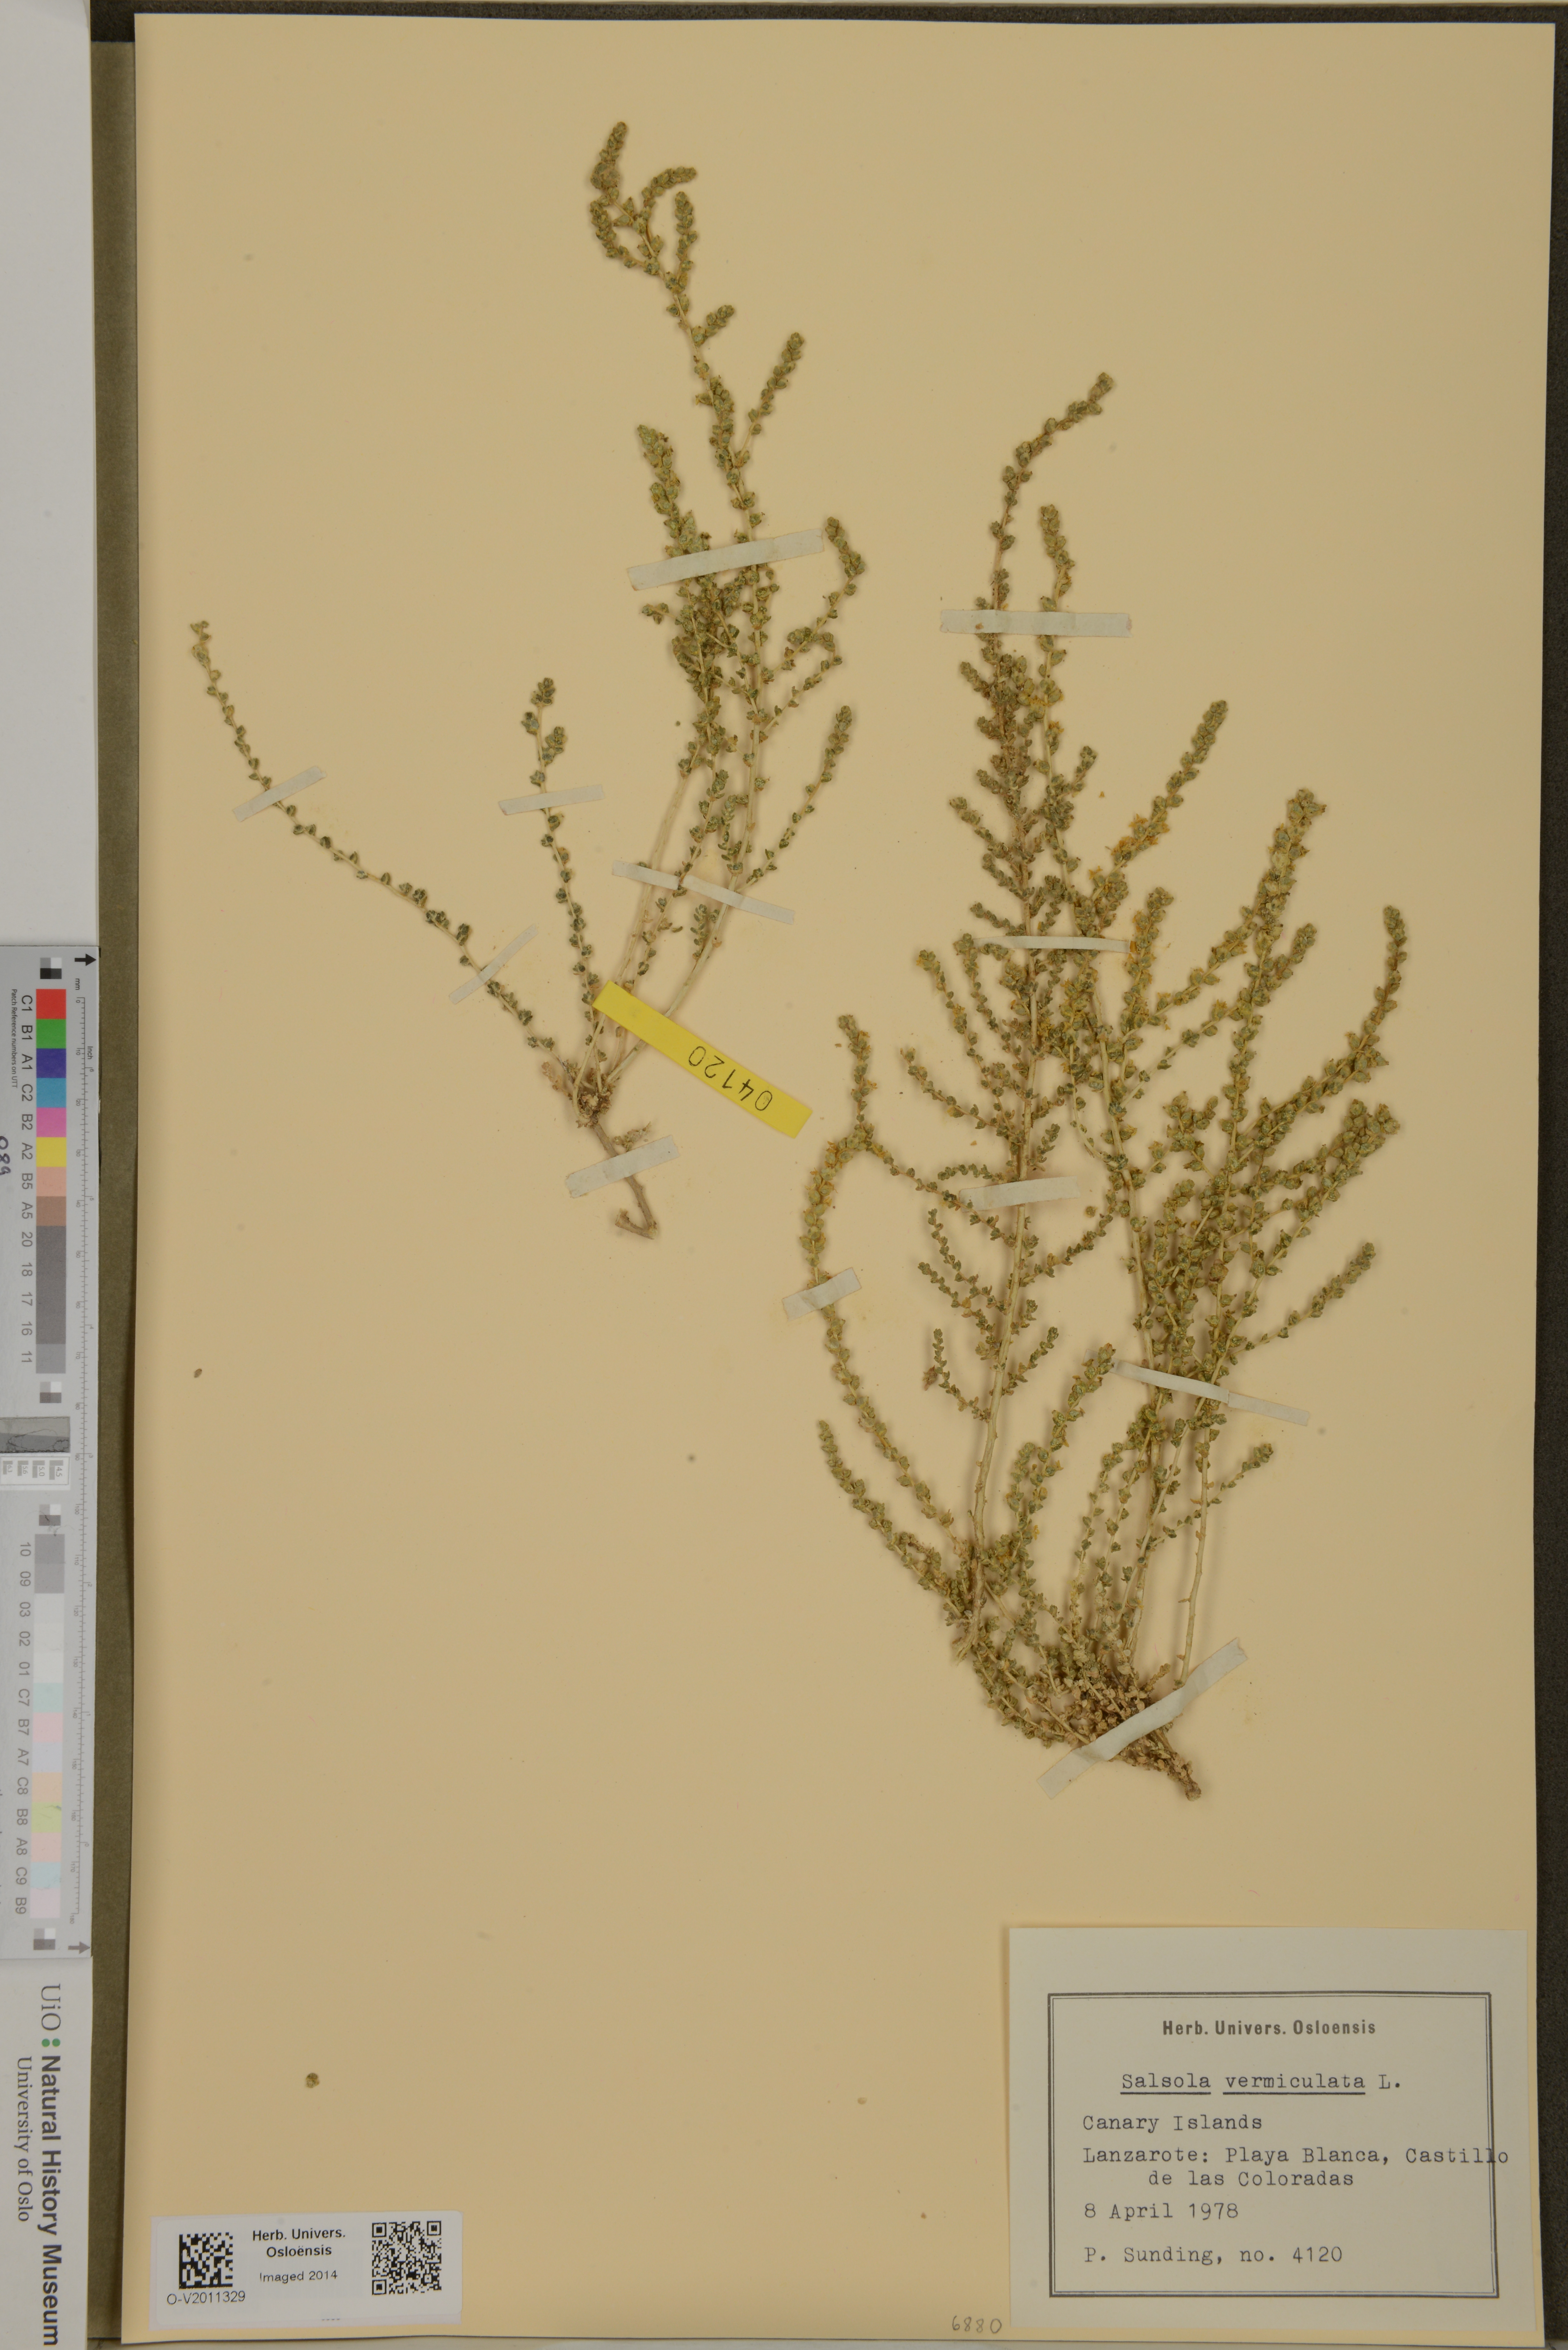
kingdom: Plantae
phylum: Tracheophyta
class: Magnoliopsida
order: Caryophyllales
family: Amaranthaceae
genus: Nitrosalsola
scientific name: Nitrosalsola vermiculata
